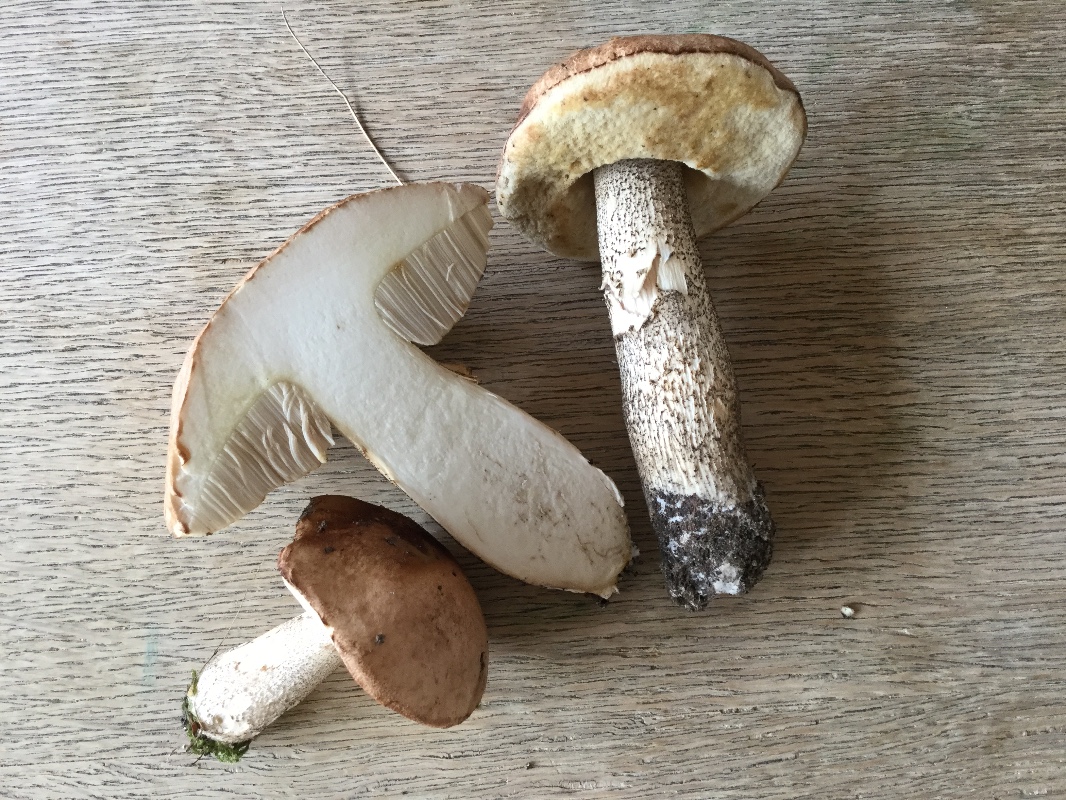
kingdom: Fungi
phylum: Basidiomycota
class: Agaricomycetes
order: Boletales
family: Boletaceae
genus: Leccinum
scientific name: Leccinum scabrum
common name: brun skælrørhat
